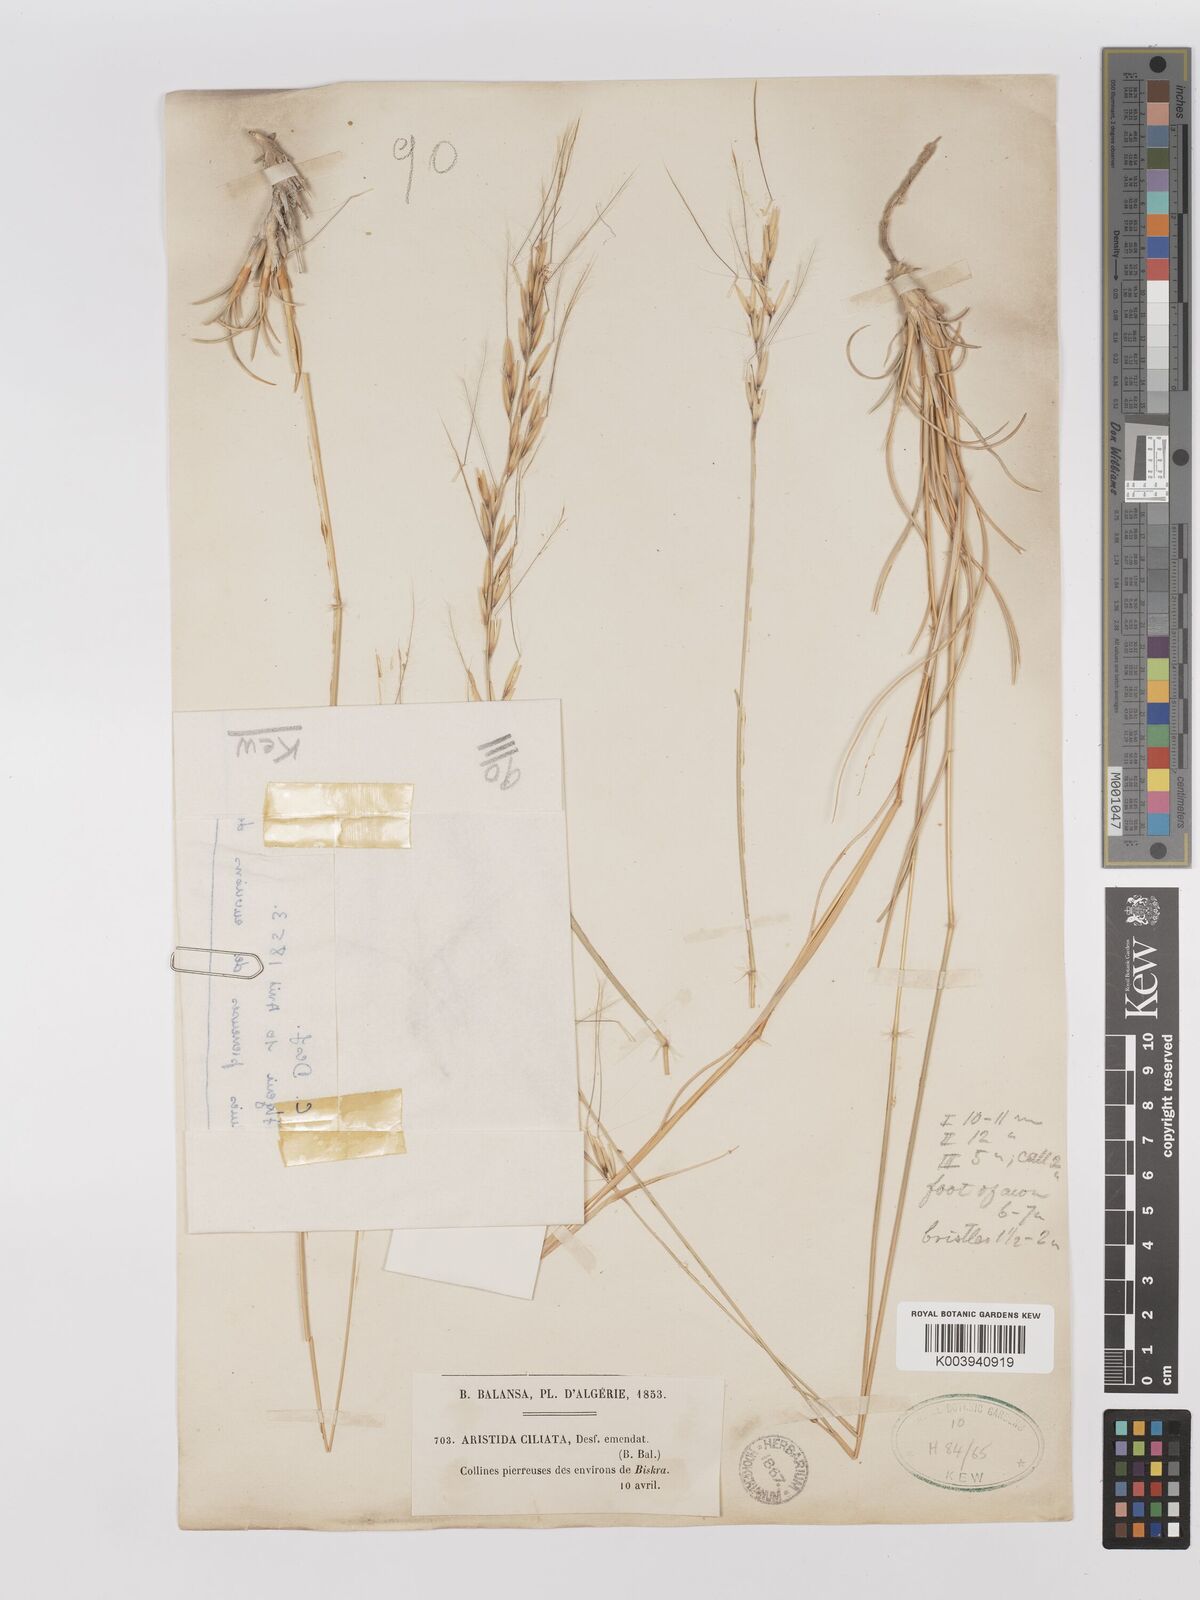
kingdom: Plantae
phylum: Tracheophyta
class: Liliopsida
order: Poales
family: Poaceae
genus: Stipagrostis
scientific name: Stipagrostis ciliata
